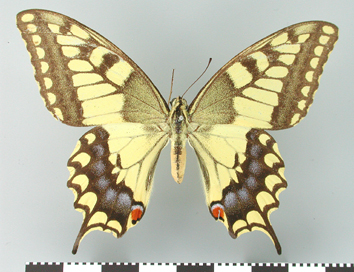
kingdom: Animalia
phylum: Arthropoda
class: Insecta
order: Lepidoptera
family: Papilionidae
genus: Papilio
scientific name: Papilio machaon
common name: Swallowtail
